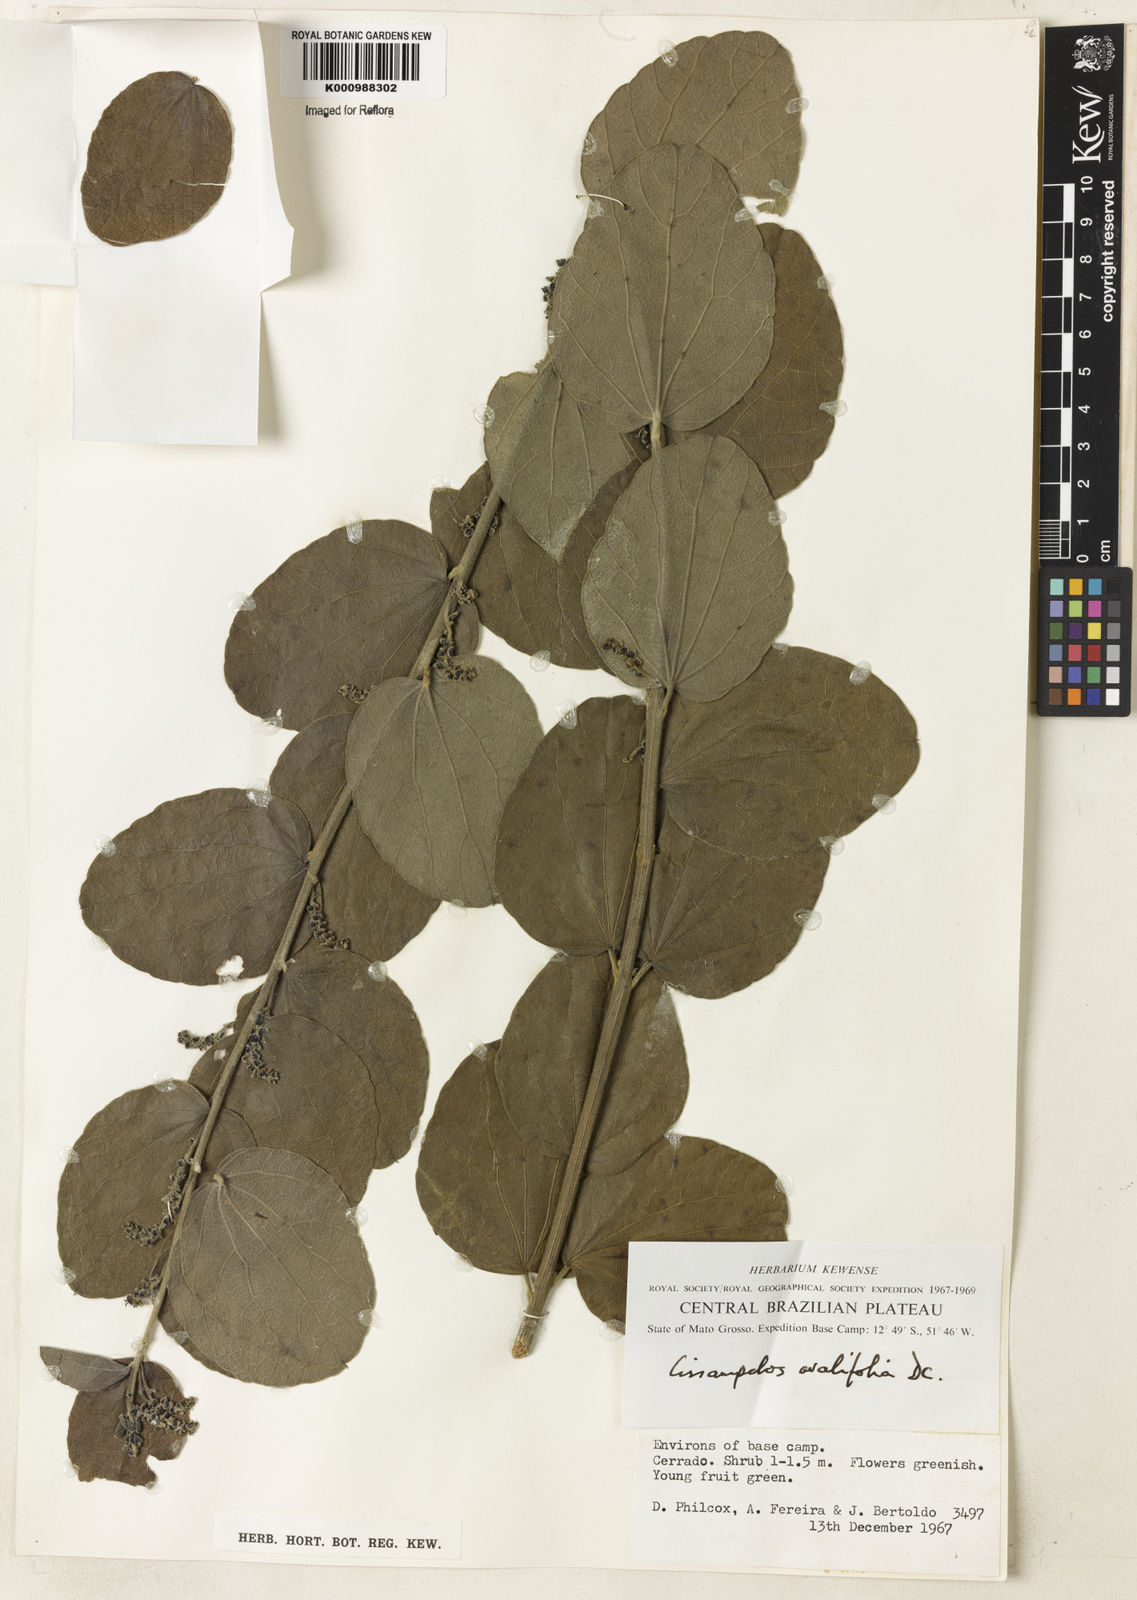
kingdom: Plantae
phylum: Tracheophyta
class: Magnoliopsida
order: Ranunculales
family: Menispermaceae
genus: Cissampelos
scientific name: Cissampelos ovalifolia
